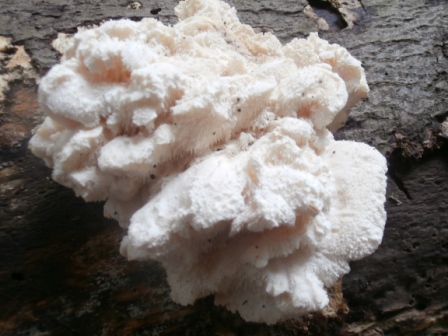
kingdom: Fungi
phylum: Basidiomycota
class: Agaricomycetes
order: Russulales
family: Hericiaceae
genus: Hericium
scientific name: Hericium cirrhatum
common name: børstepigsvamp
